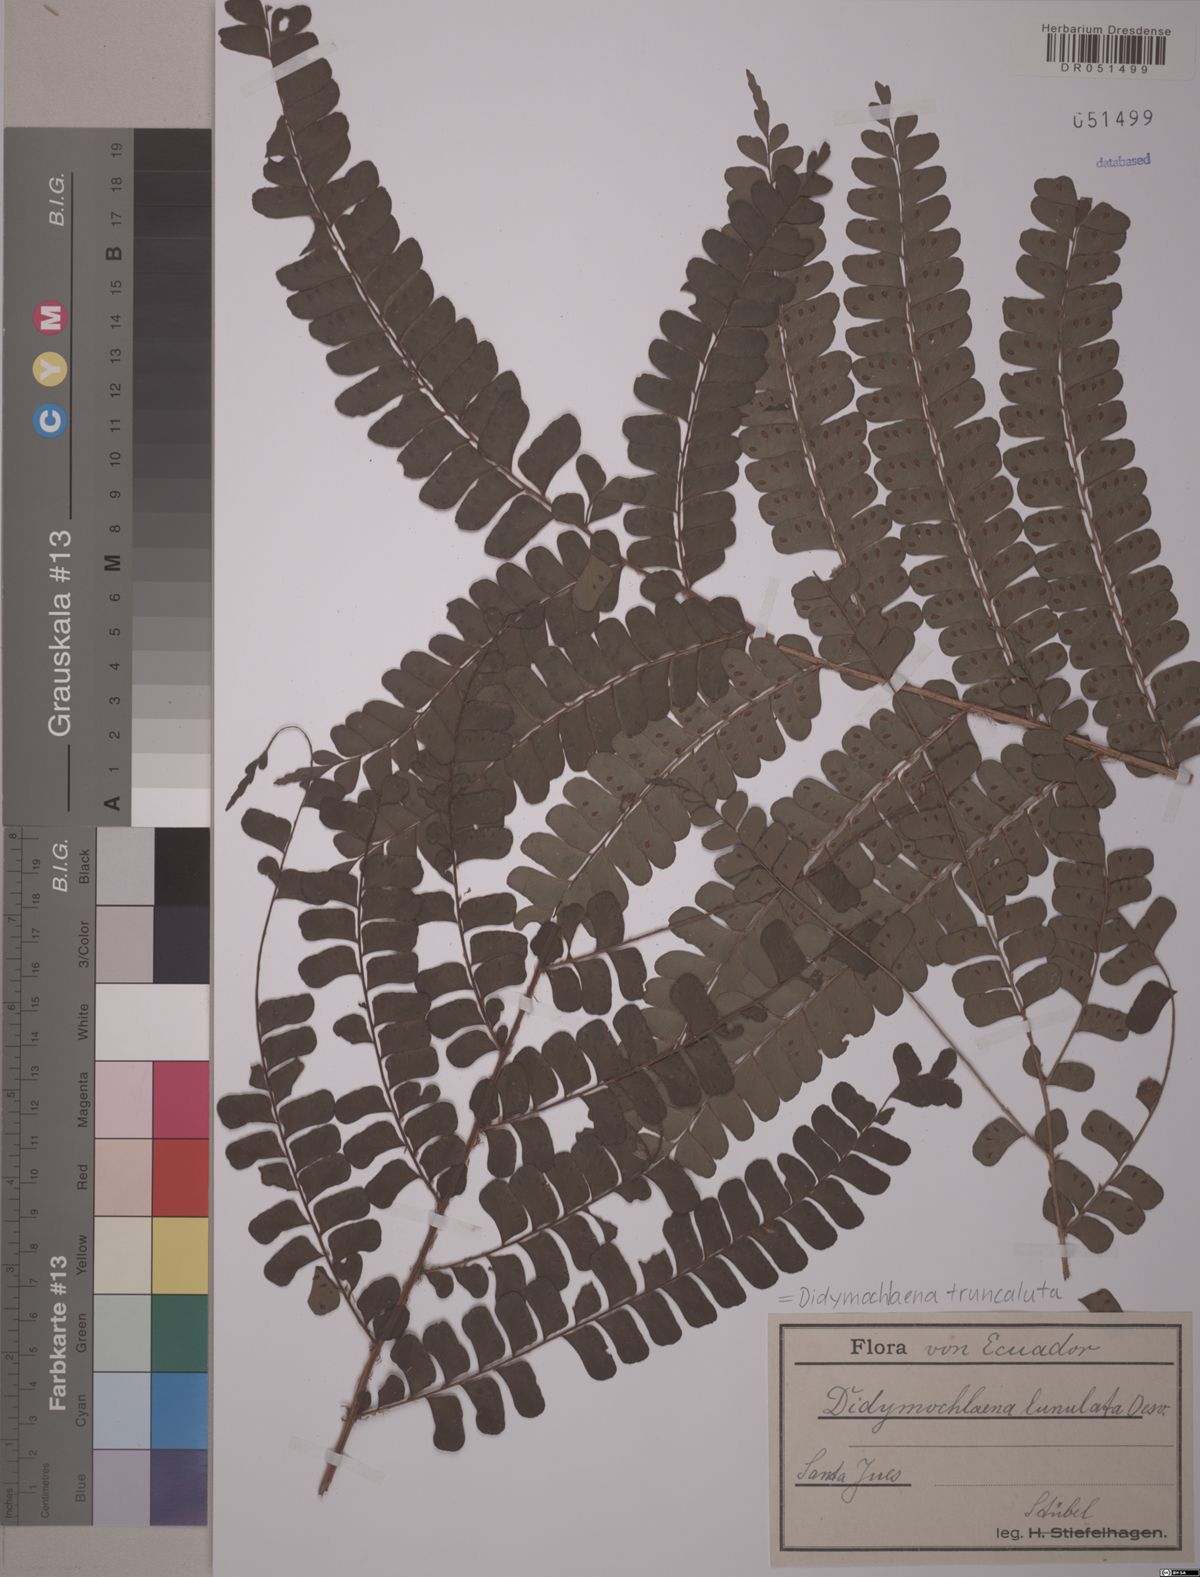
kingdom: Plantae
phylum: Tracheophyta
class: Polypodiopsida
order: Polypodiales
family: Didymochlaenaceae
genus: Didymochlaena
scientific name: Didymochlaena truncatula
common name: Mahogany fern
